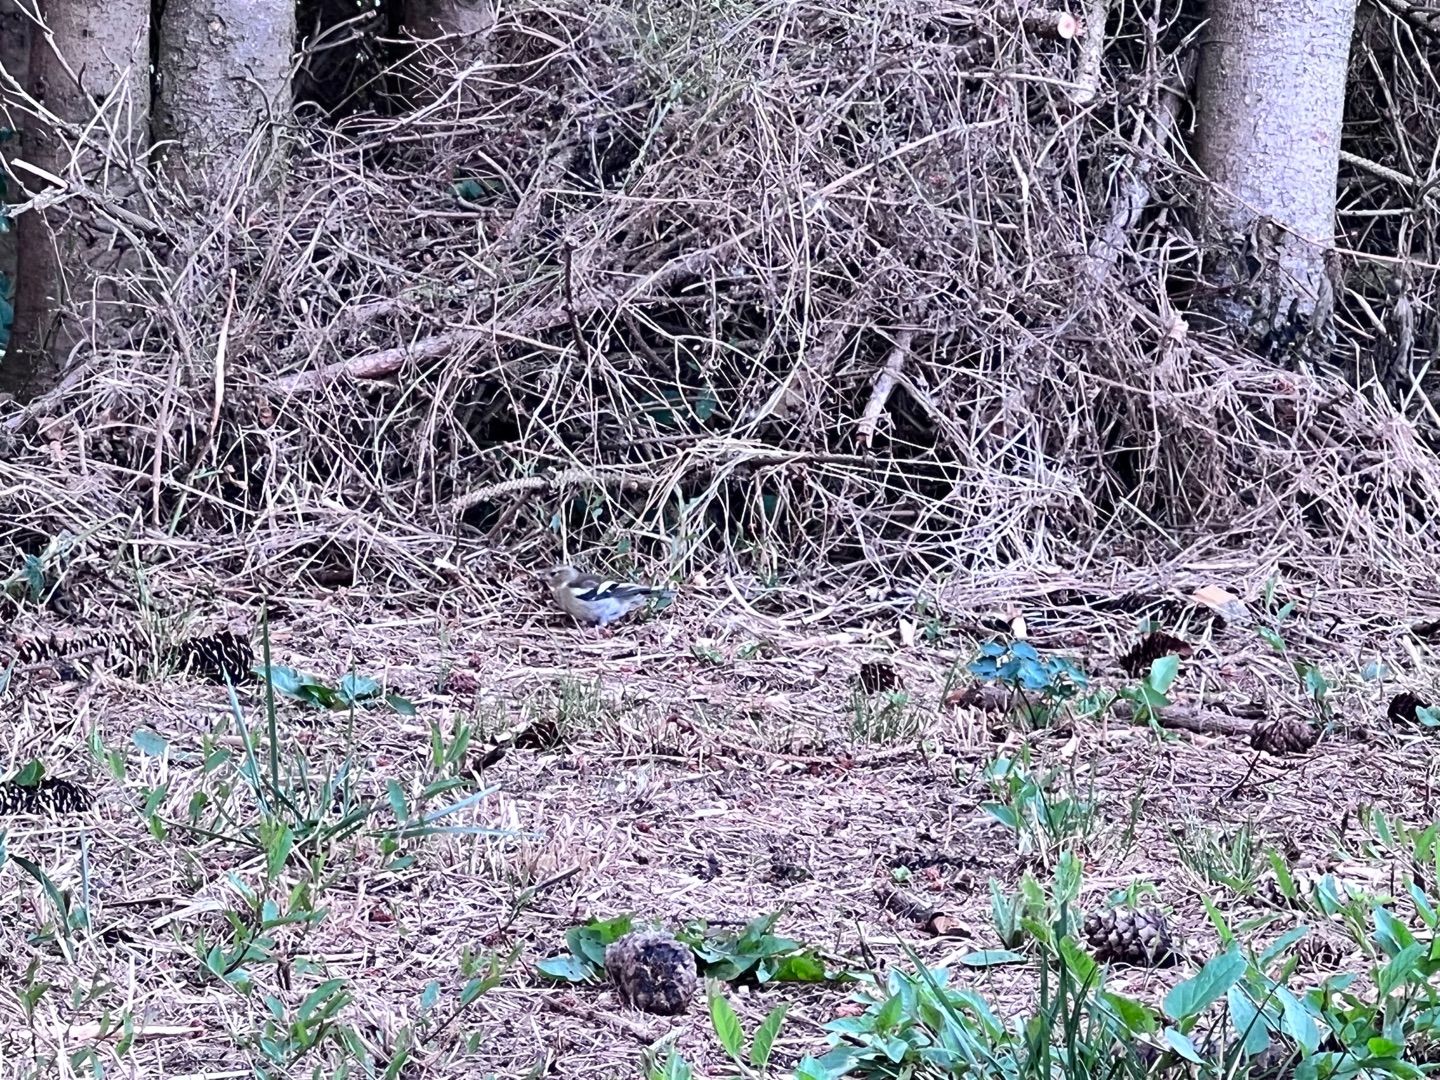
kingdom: Animalia
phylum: Chordata
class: Aves
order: Passeriformes
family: Fringillidae
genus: Fringilla
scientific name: Fringilla coelebs
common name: Bogfinke
